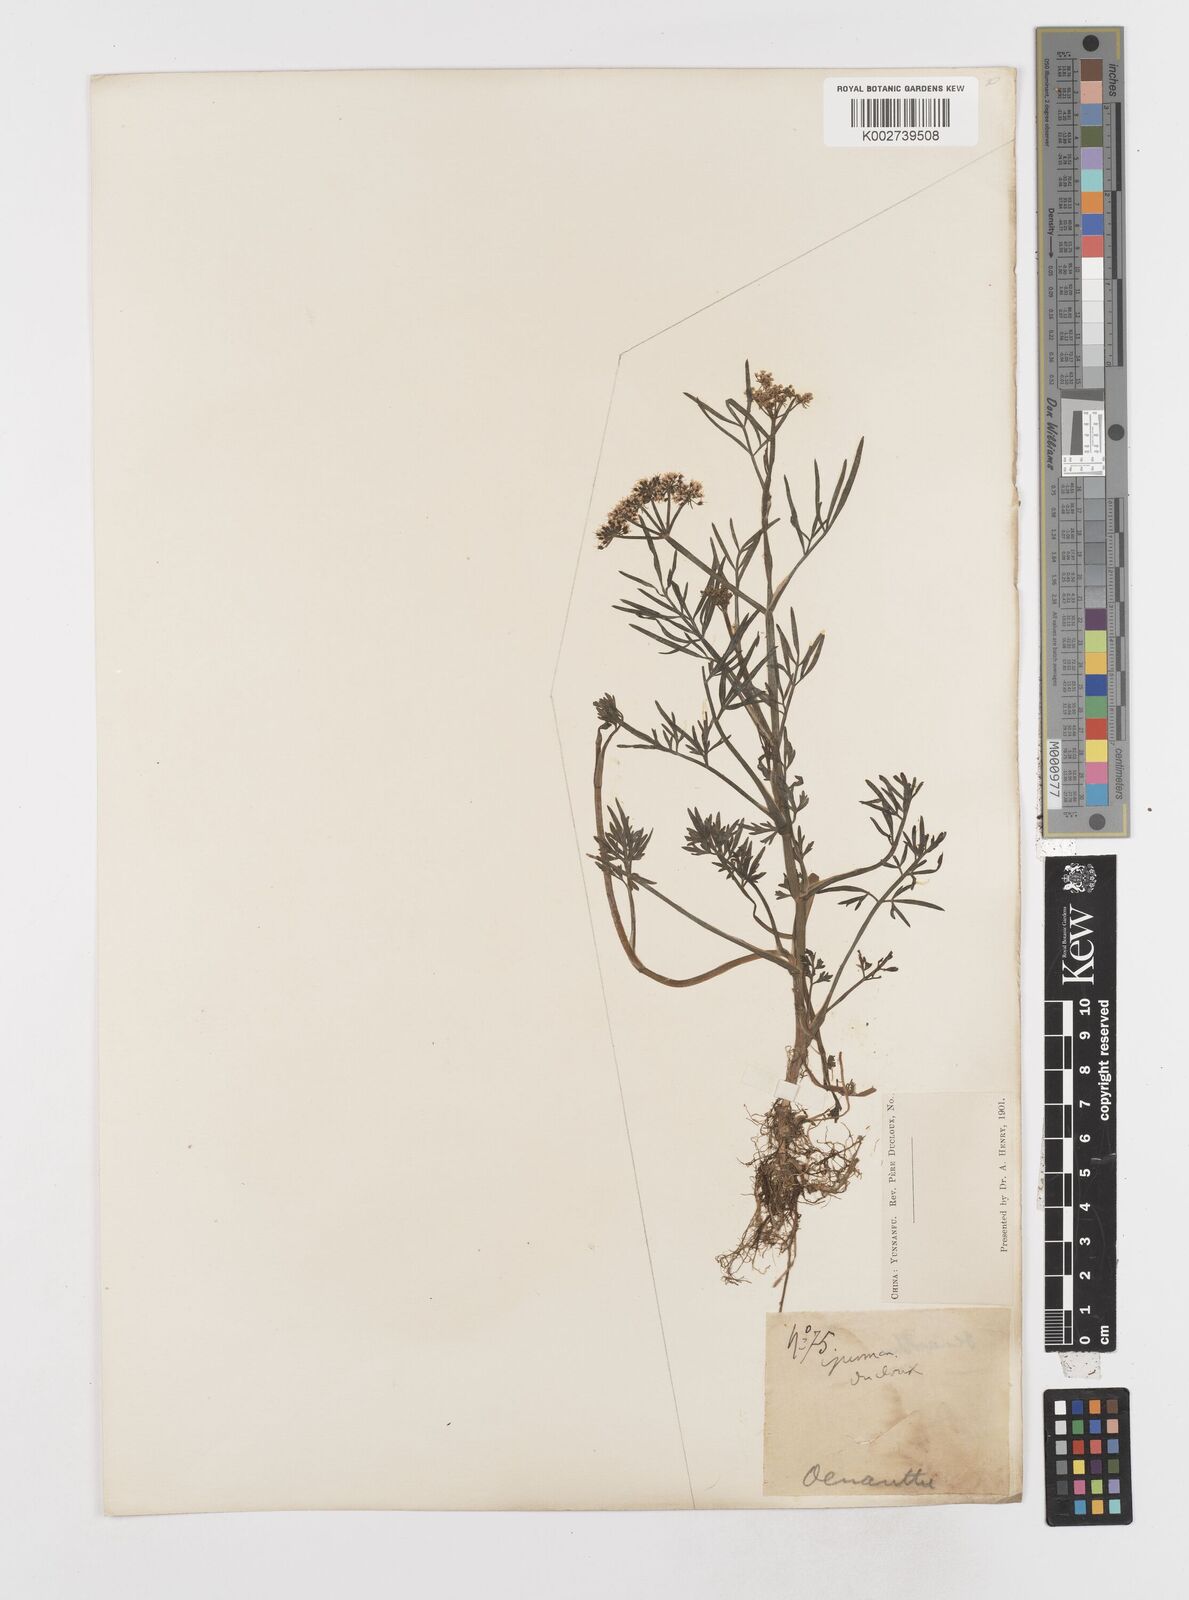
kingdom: Plantae
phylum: Tracheophyta
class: Magnoliopsida
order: Apiales
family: Apiaceae
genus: Oenanthe
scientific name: Oenanthe linearis
